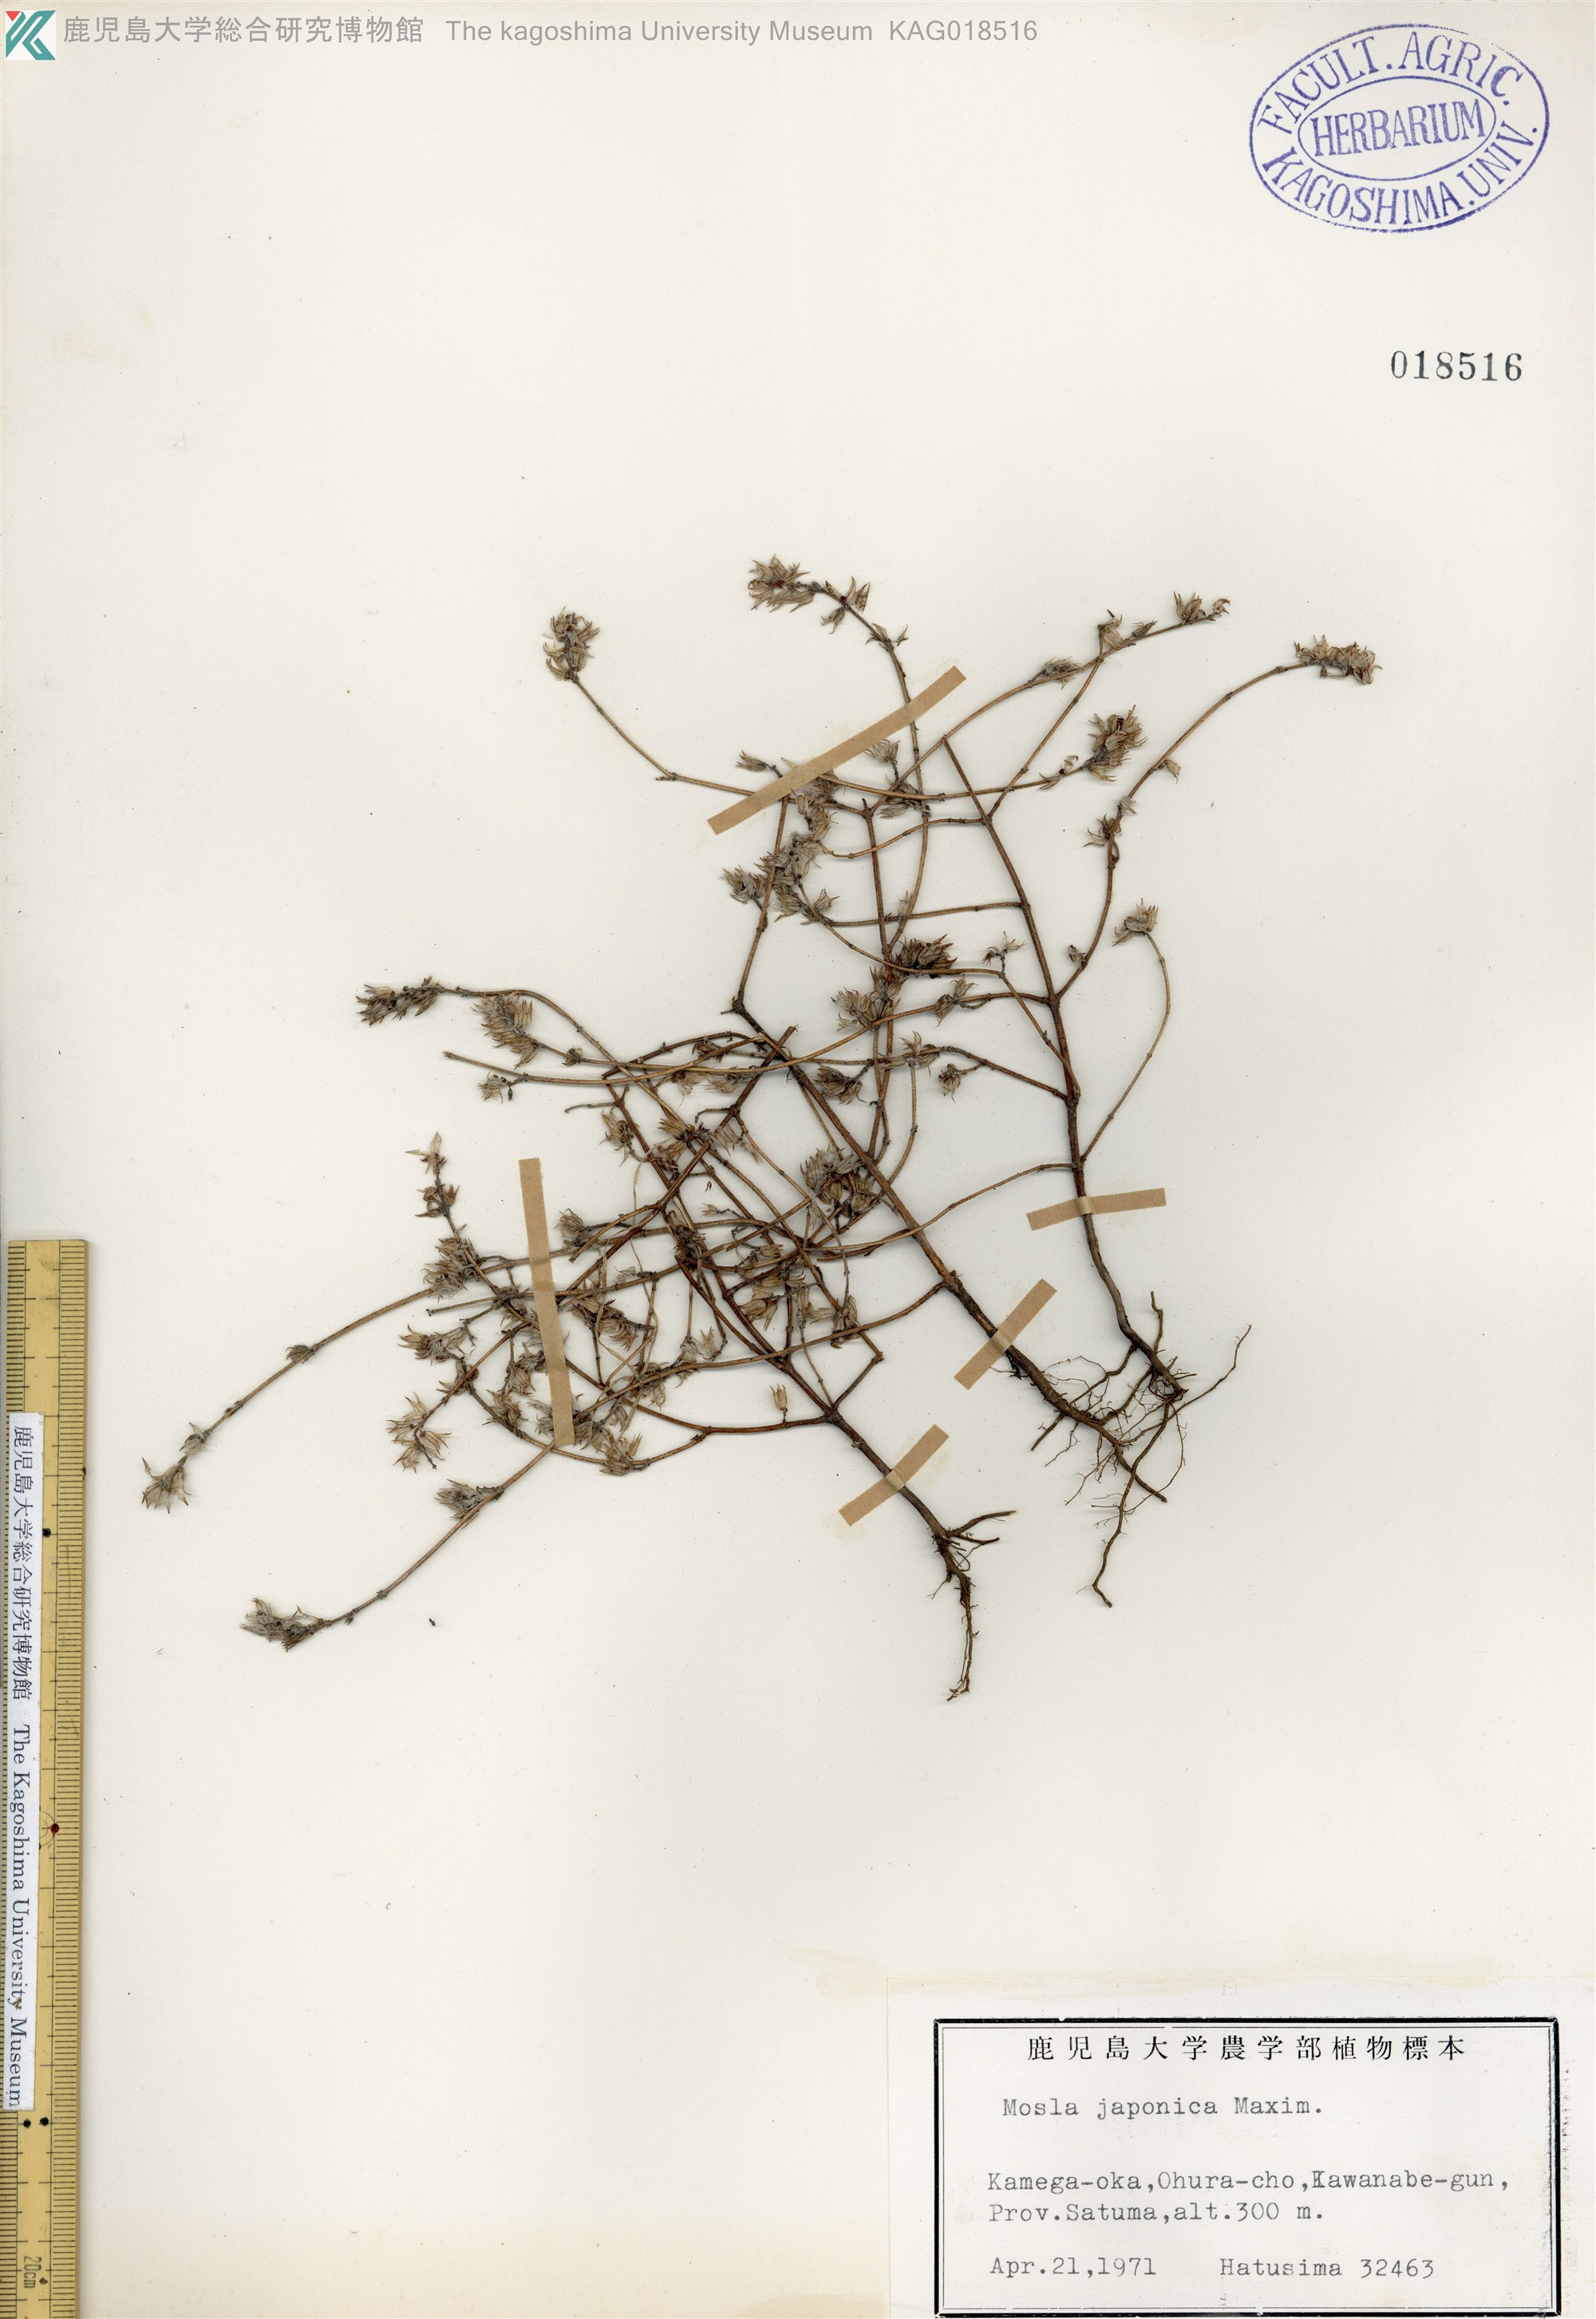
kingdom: Plantae
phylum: Tracheophyta
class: Magnoliopsida
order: Lamiales
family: Lamiaceae
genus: Mosla
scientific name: Mosla japonica
